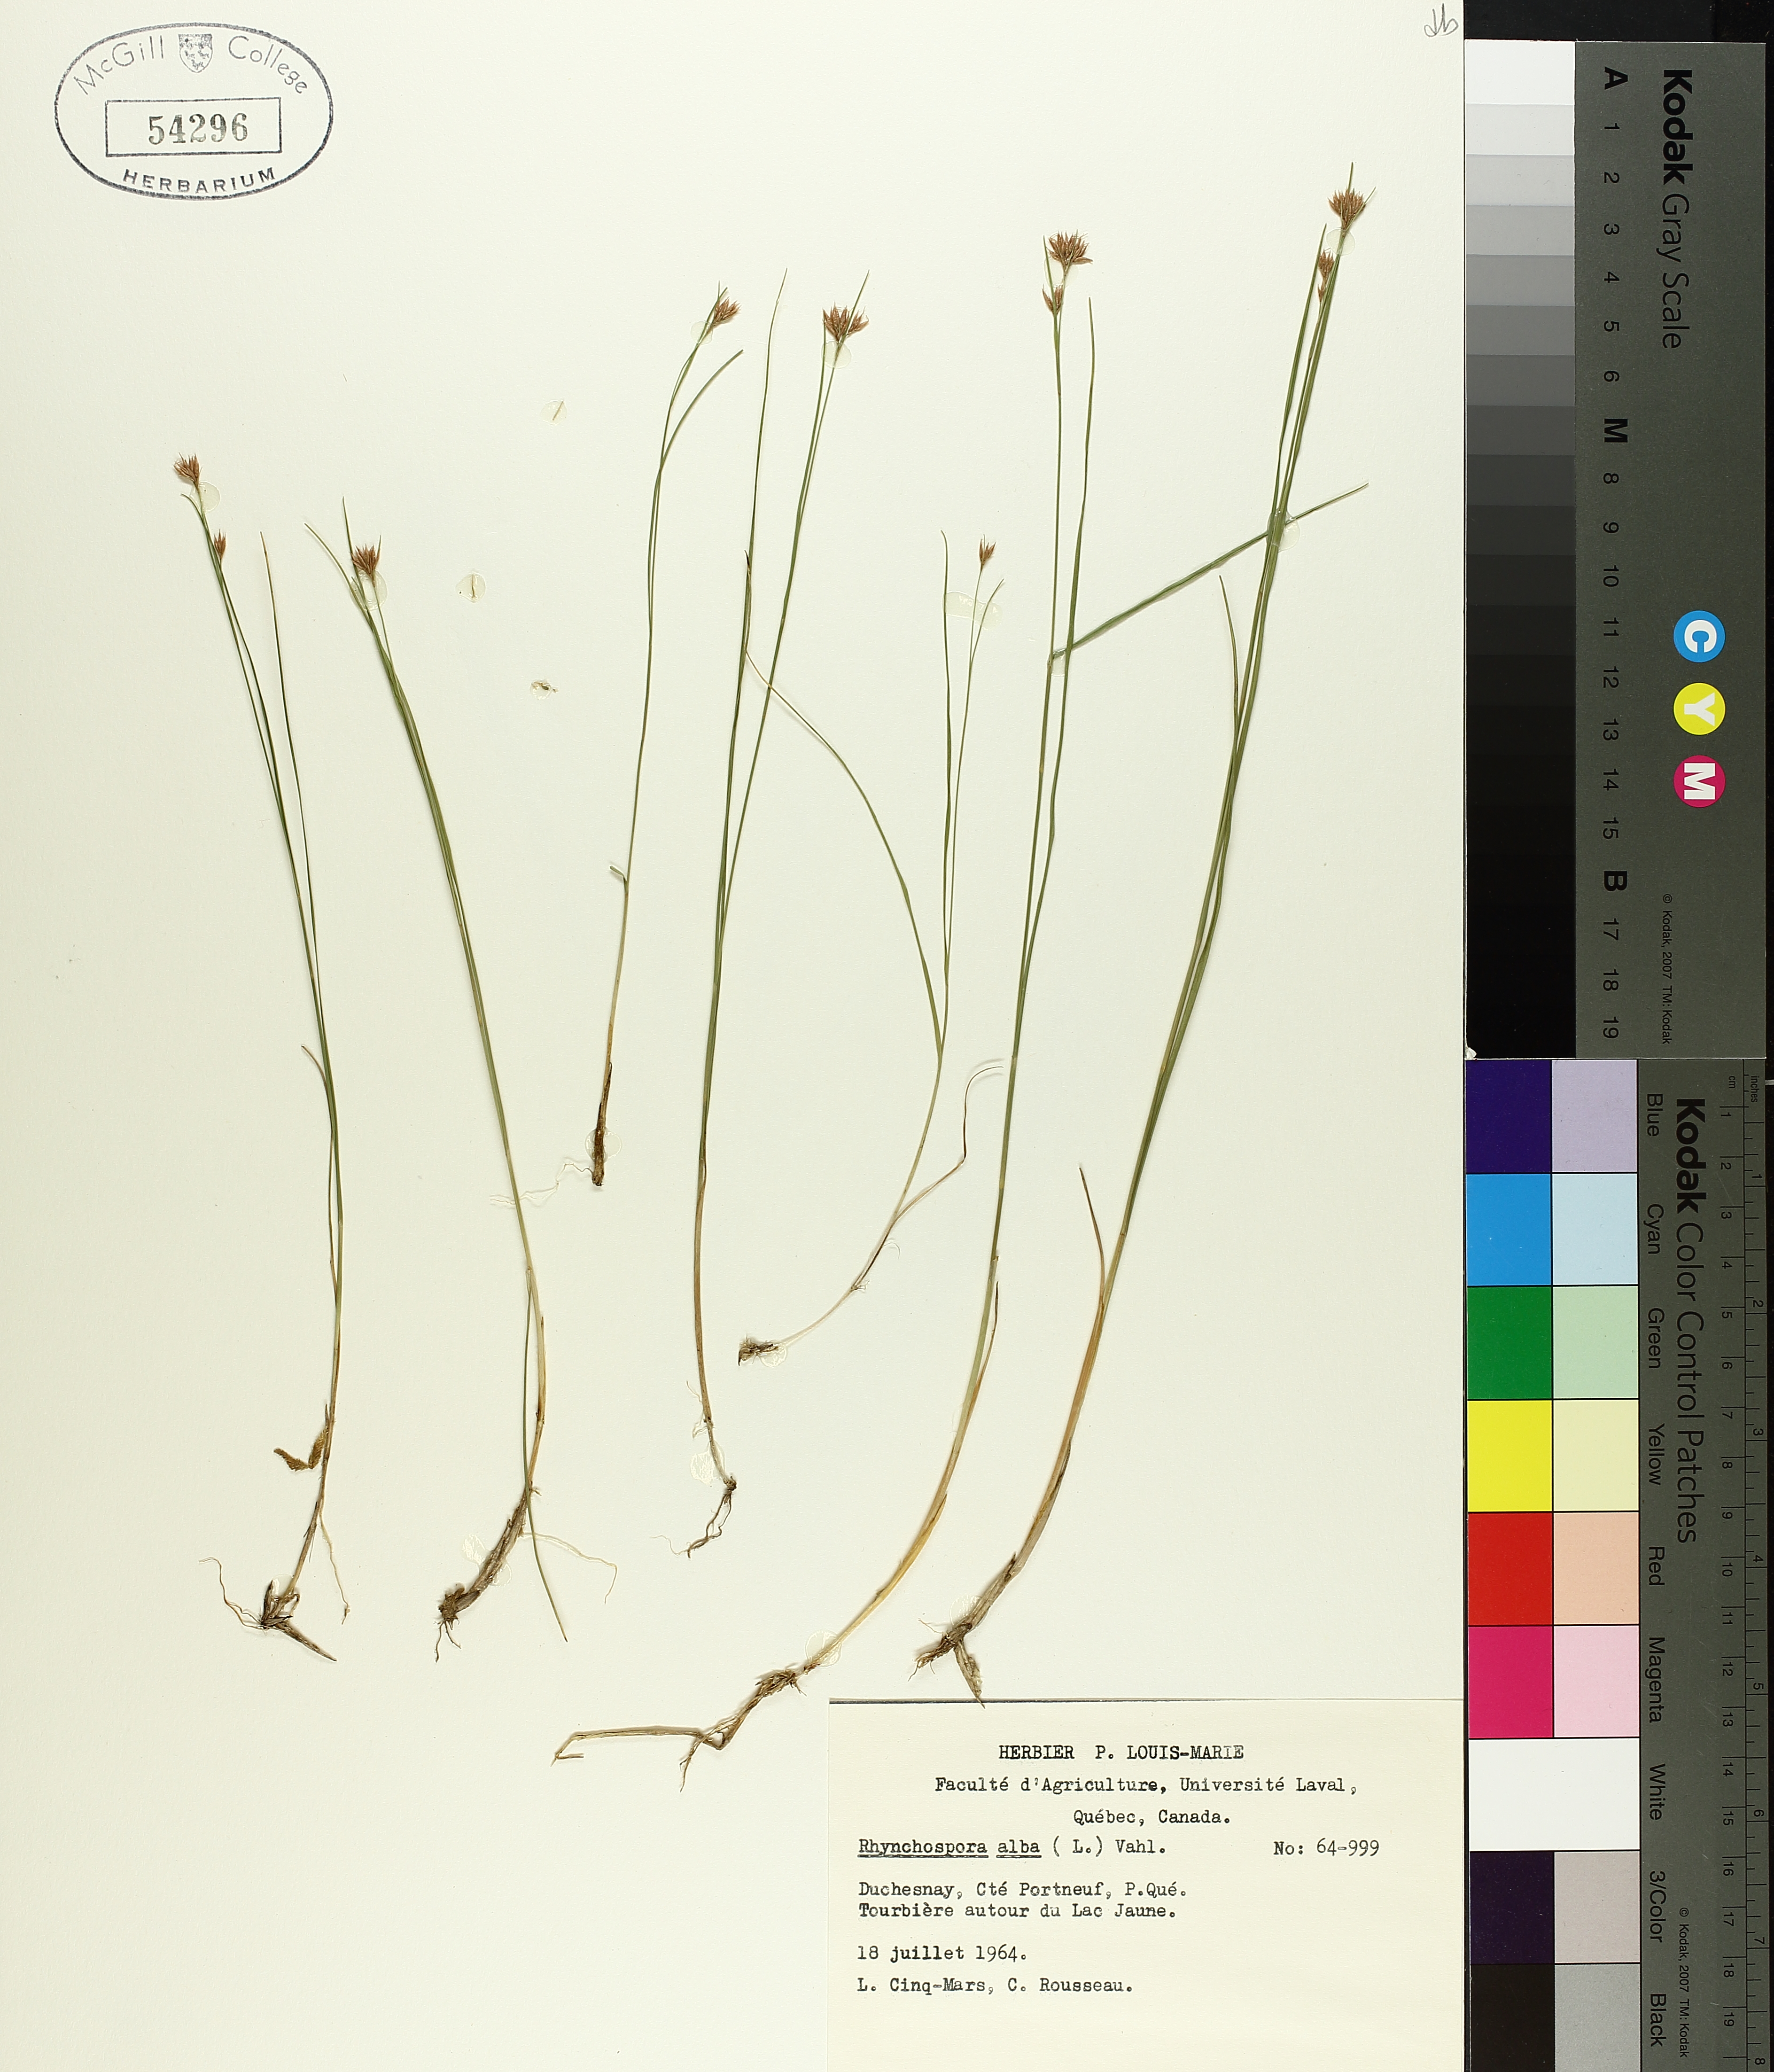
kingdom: Plantae
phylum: Tracheophyta
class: Liliopsida
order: Poales
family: Cyperaceae
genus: Rhynchospora
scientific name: Rhynchospora alba
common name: White beak-sedge
